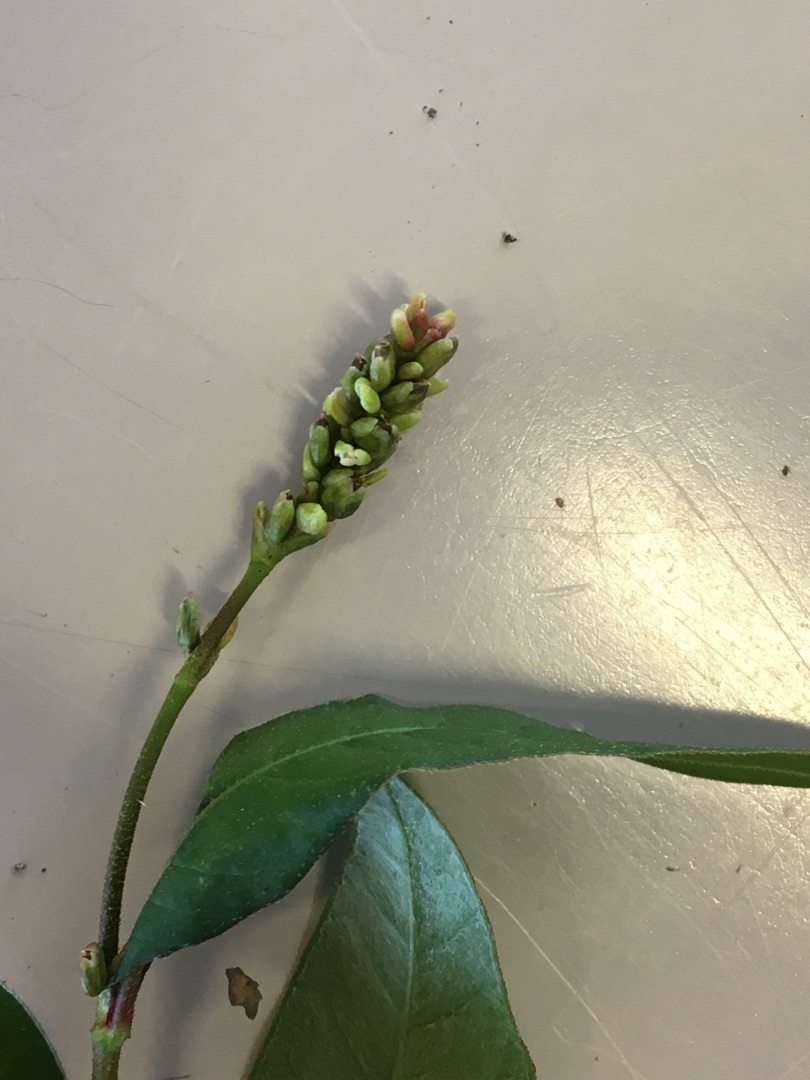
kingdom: Plantae
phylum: Tracheophyta
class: Magnoliopsida
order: Caryophyllales
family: Polygonaceae
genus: Persicaria
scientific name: Persicaria maculosa
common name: Fersken-pileurt
